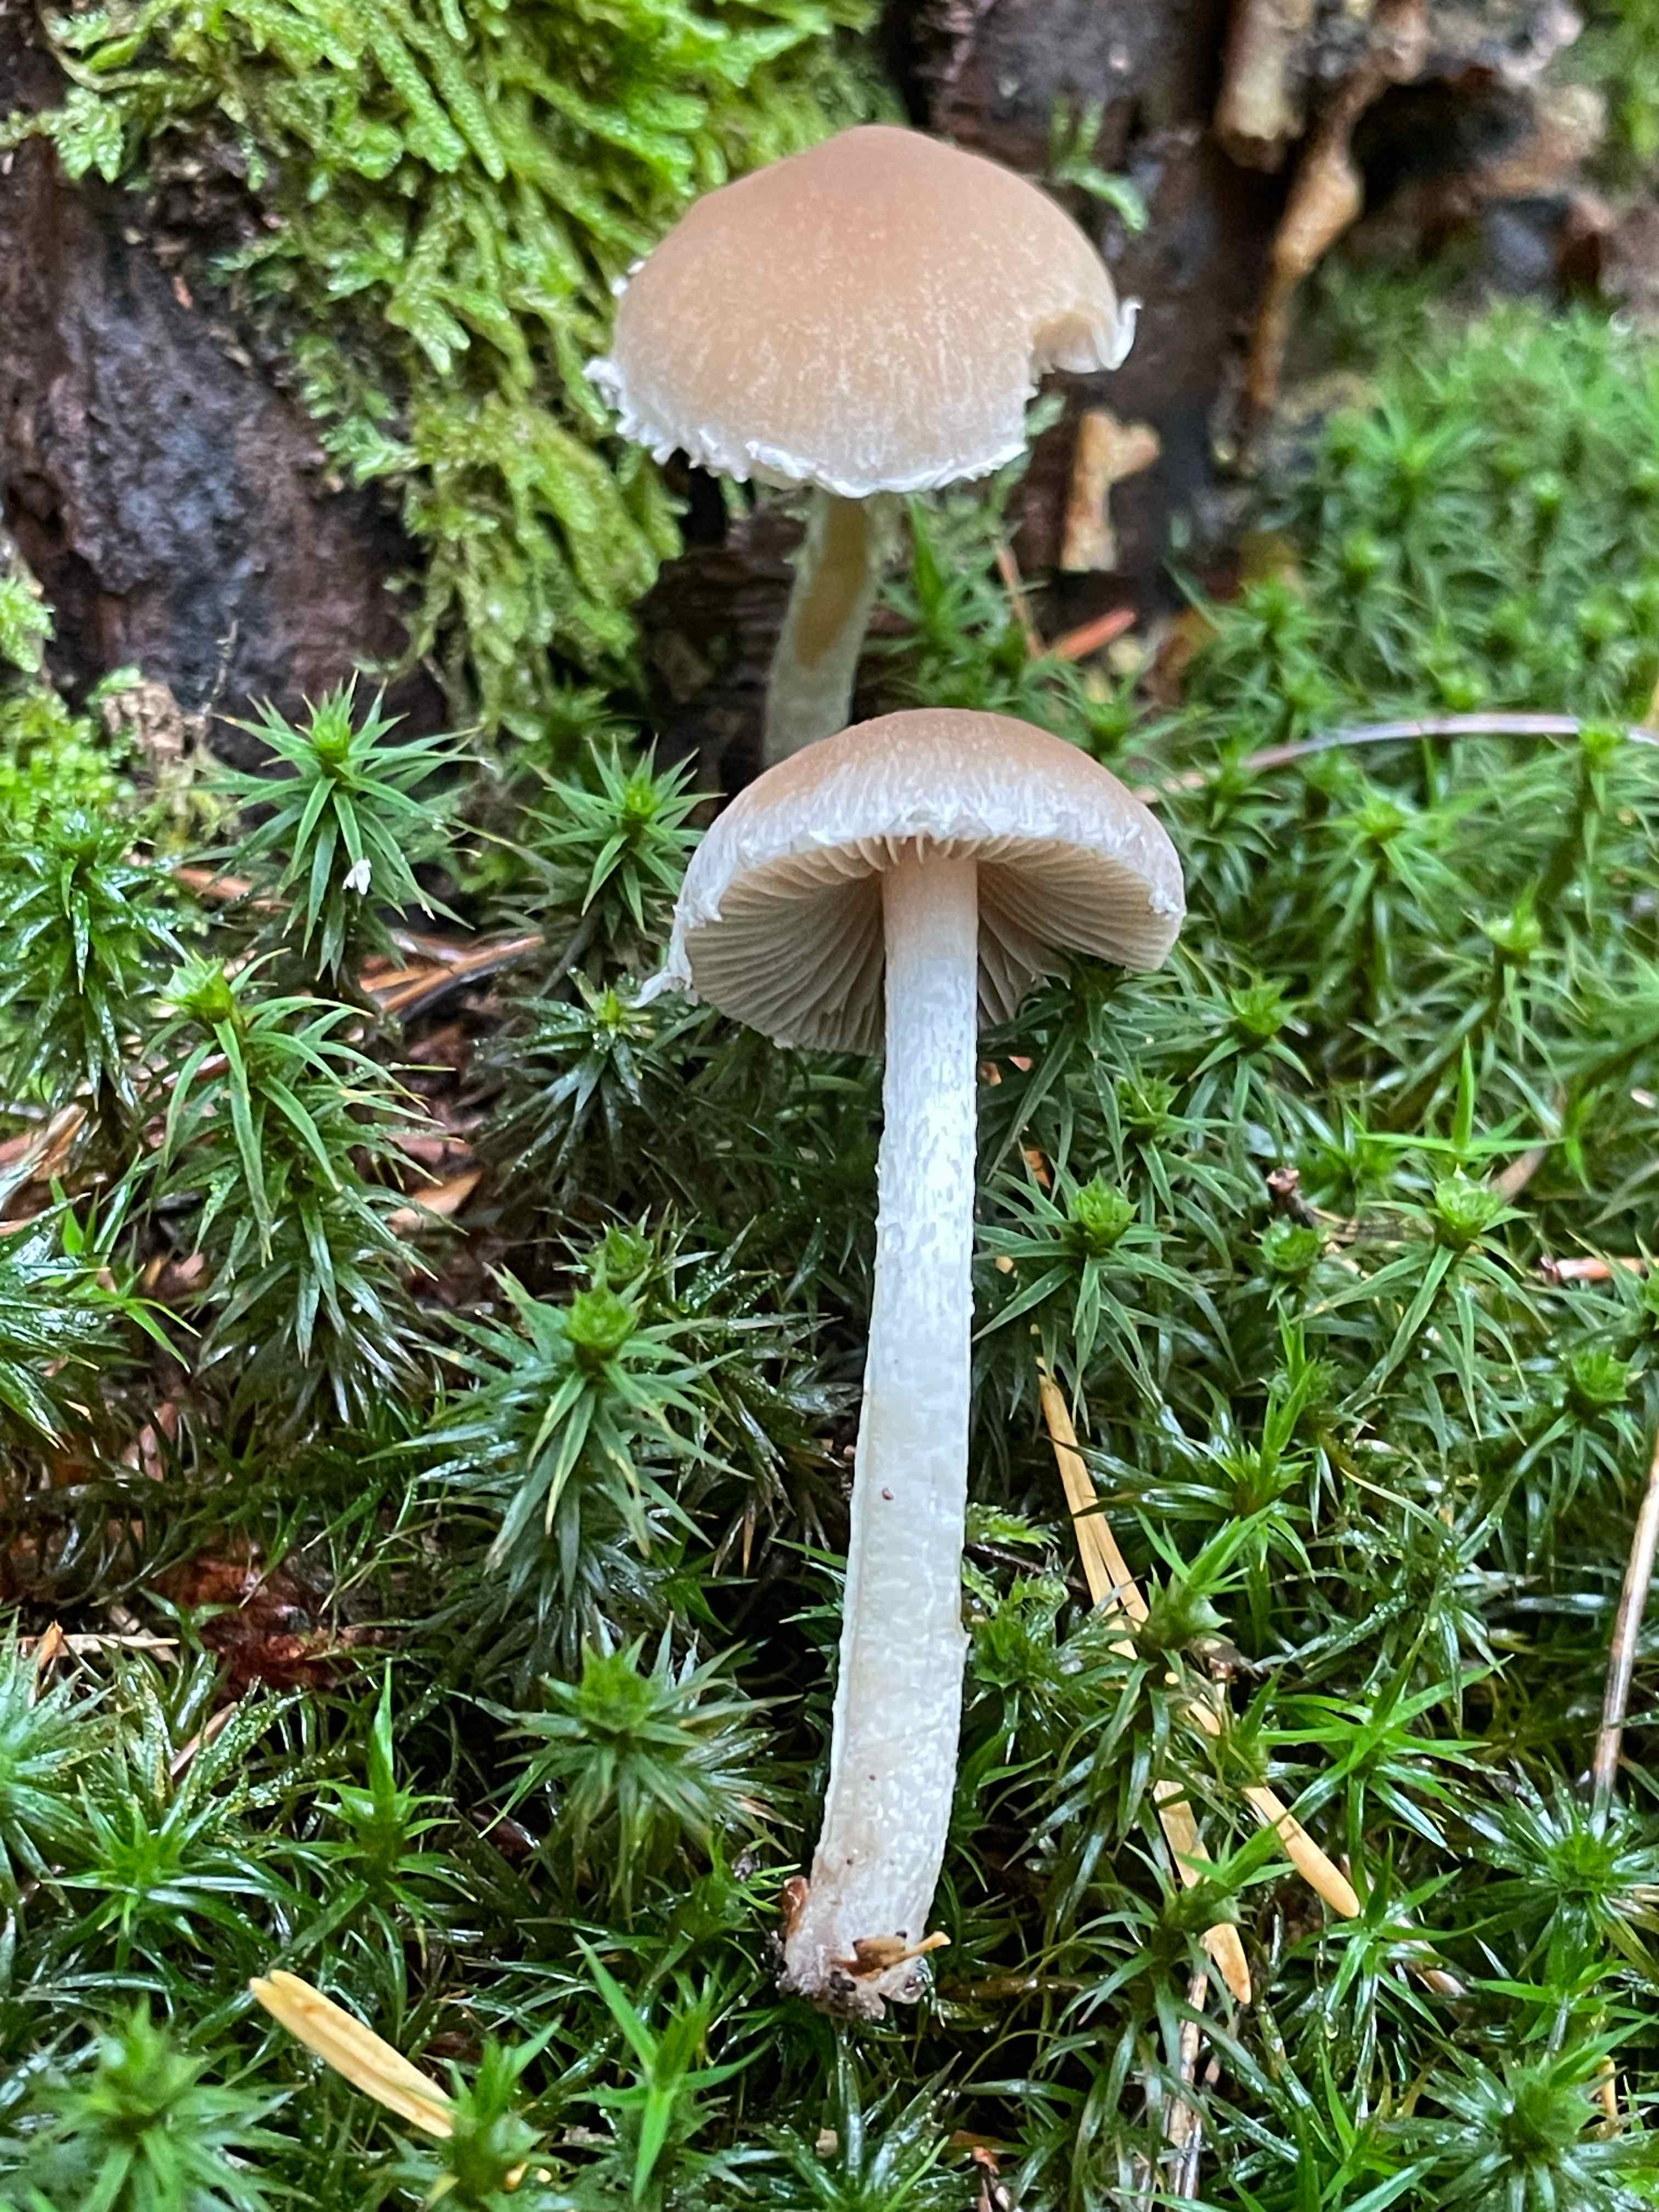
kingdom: Fungi
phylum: Basidiomycota
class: Agaricomycetes
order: Agaricales
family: Psathyrellaceae
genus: Psathyrella
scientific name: Psathyrella
